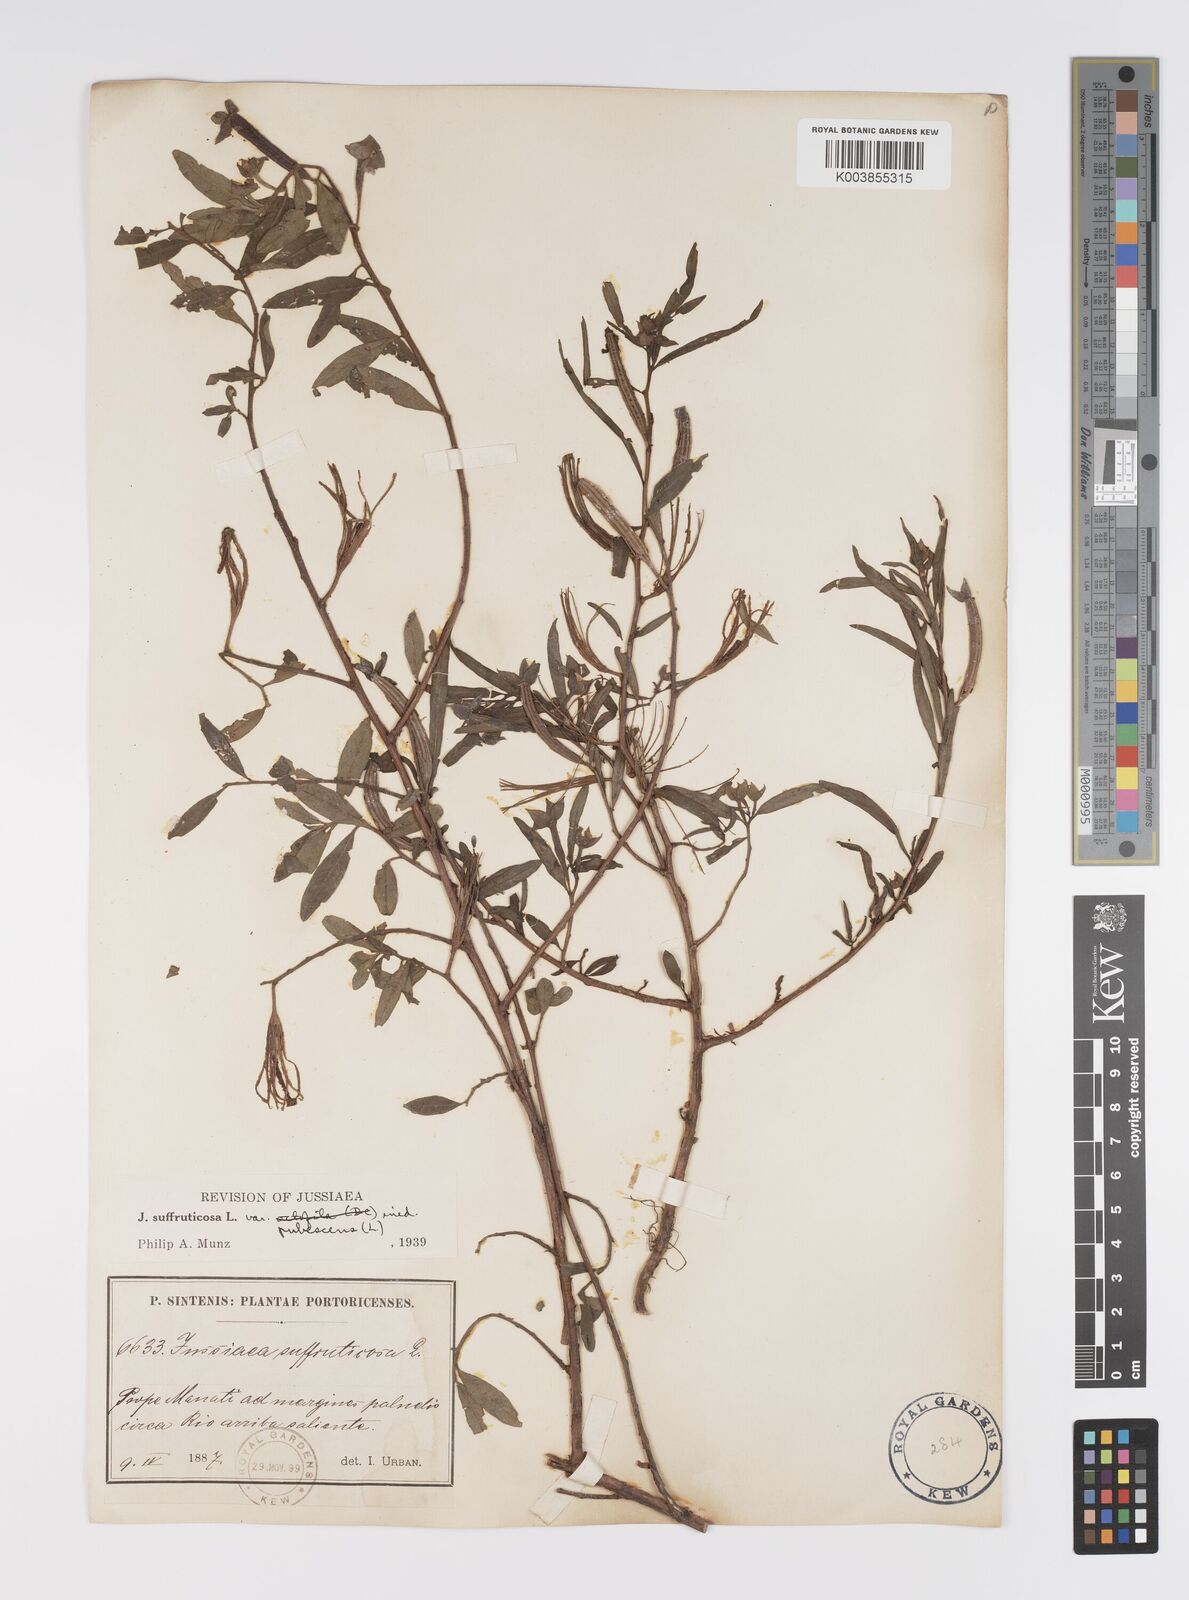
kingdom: Plantae
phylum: Tracheophyta
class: Magnoliopsida
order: Myrtales
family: Onagraceae
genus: Ludwigia
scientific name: Ludwigia octovalvis
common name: Water-primrose
